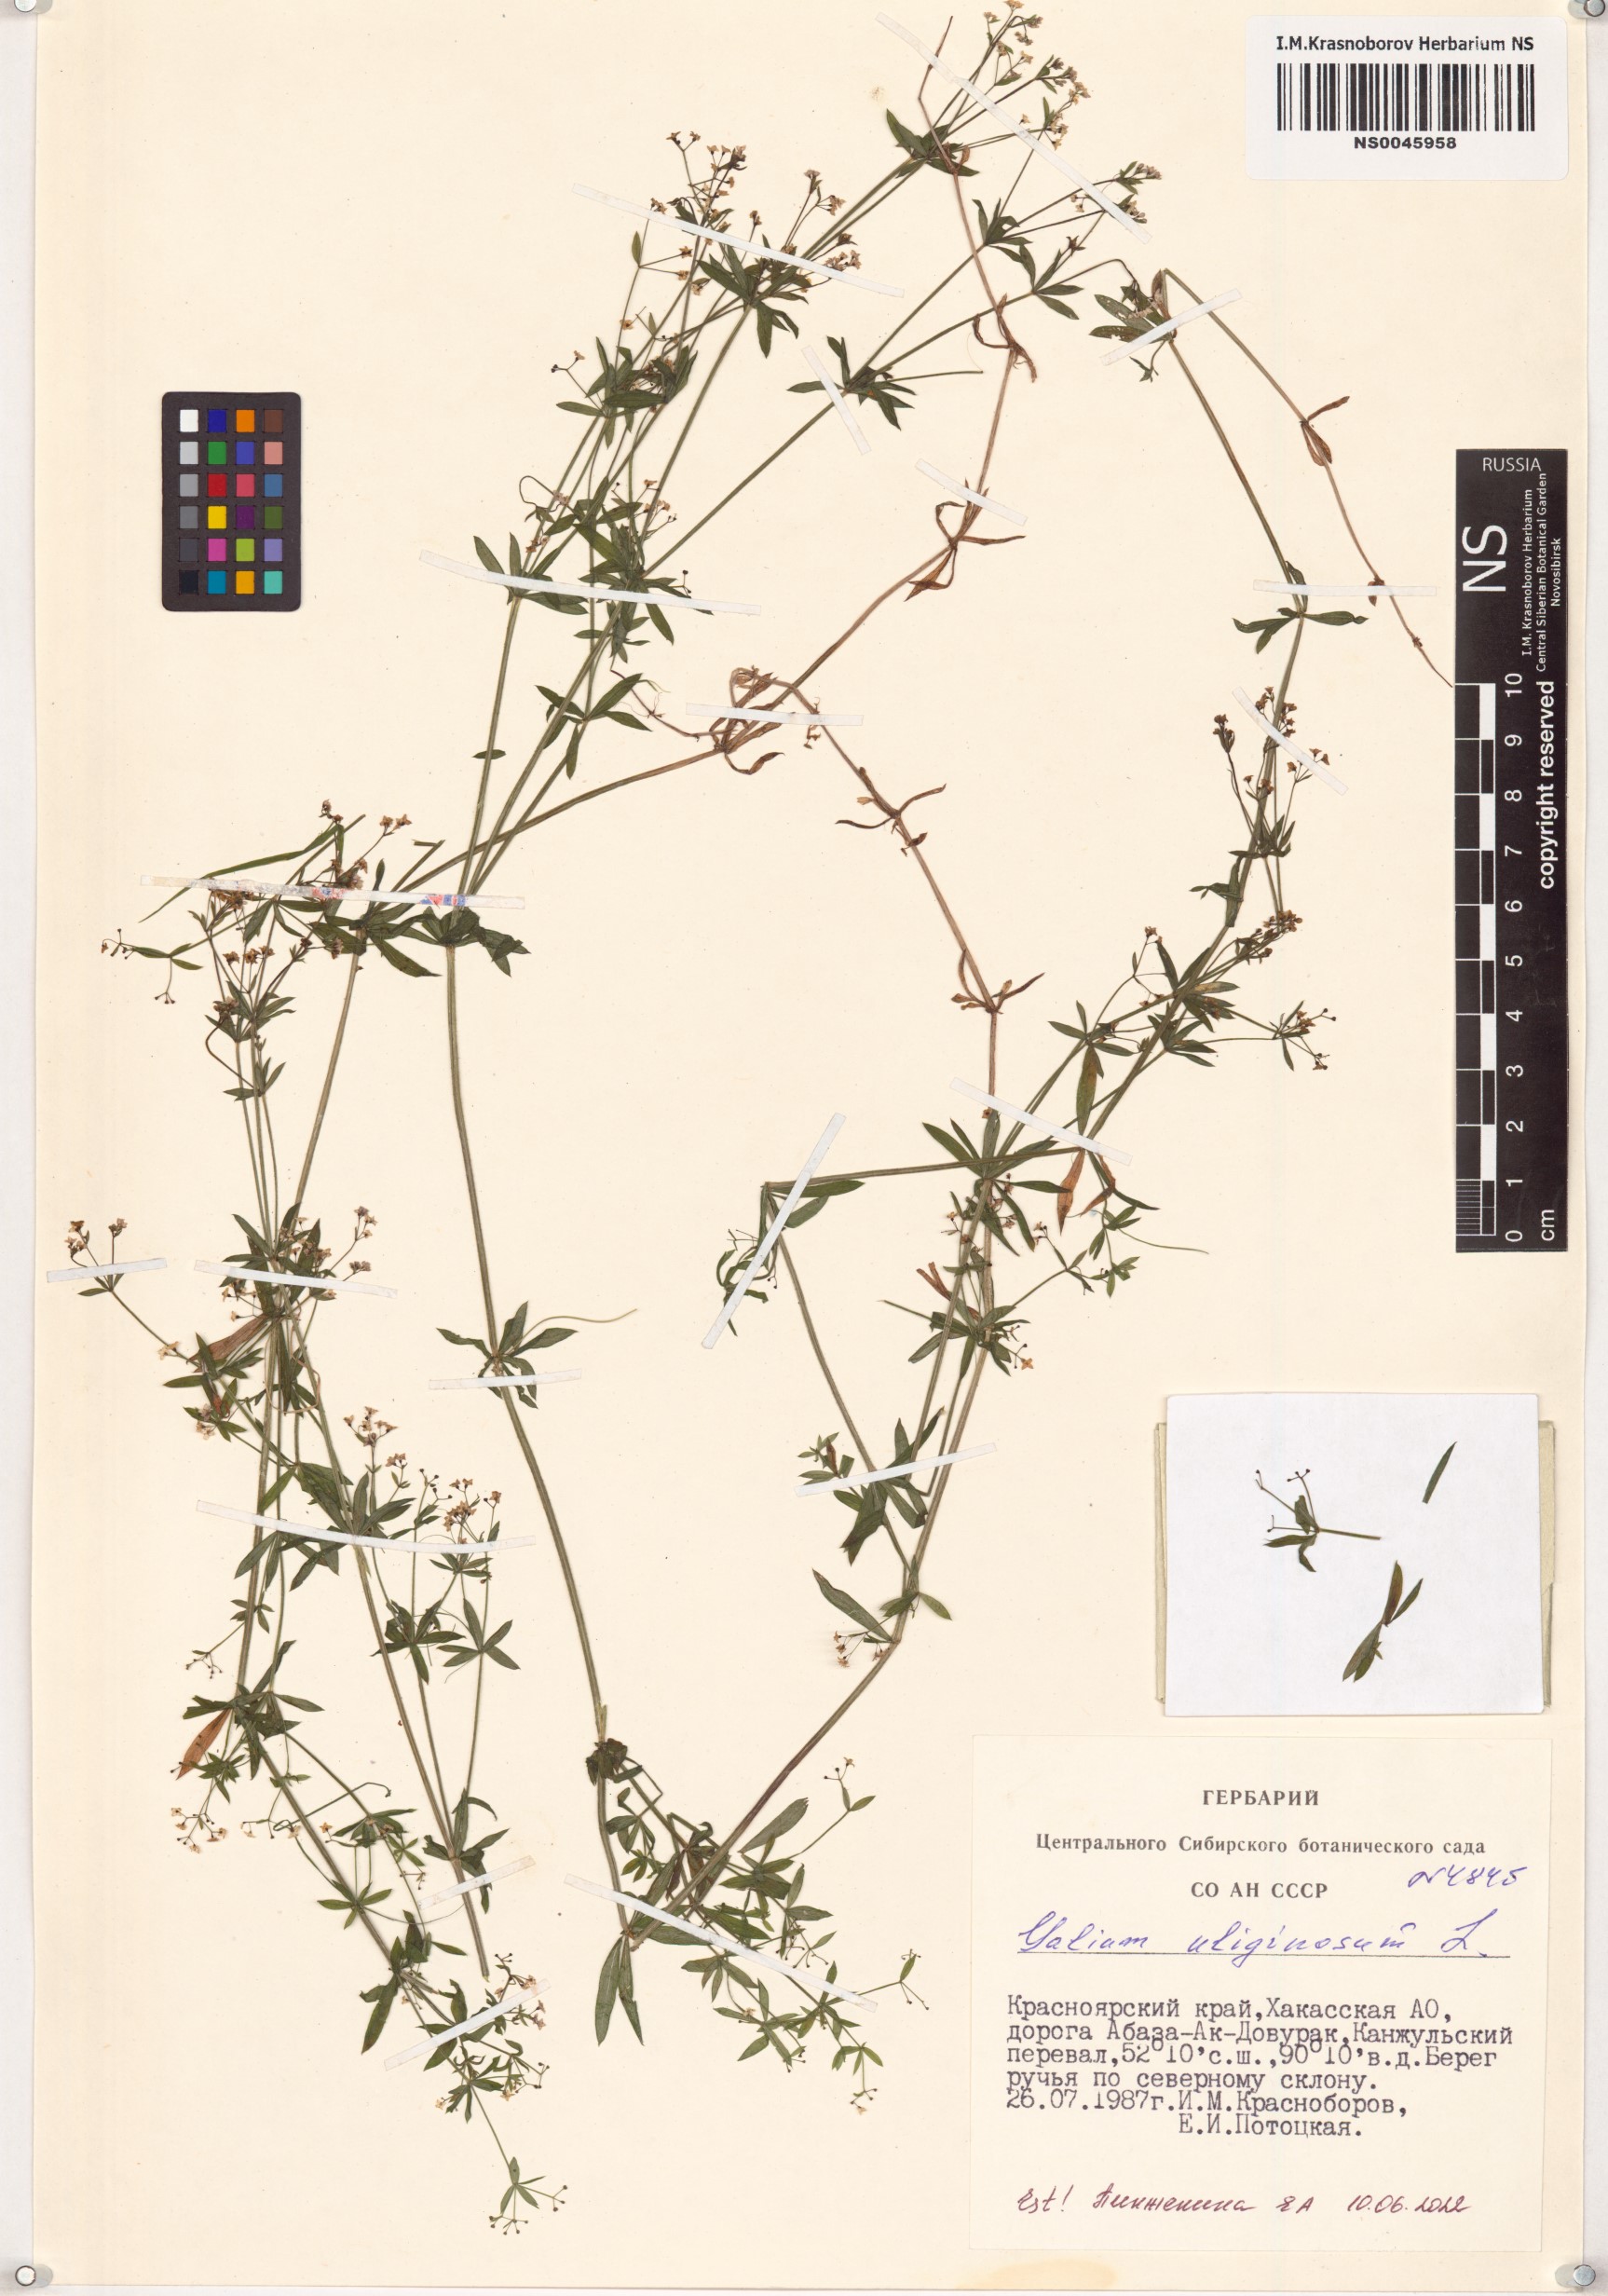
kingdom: Plantae
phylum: Tracheophyta
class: Magnoliopsida
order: Gentianales
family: Rubiaceae
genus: Galium
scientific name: Galium uliginosum
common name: Fen bedstraw
